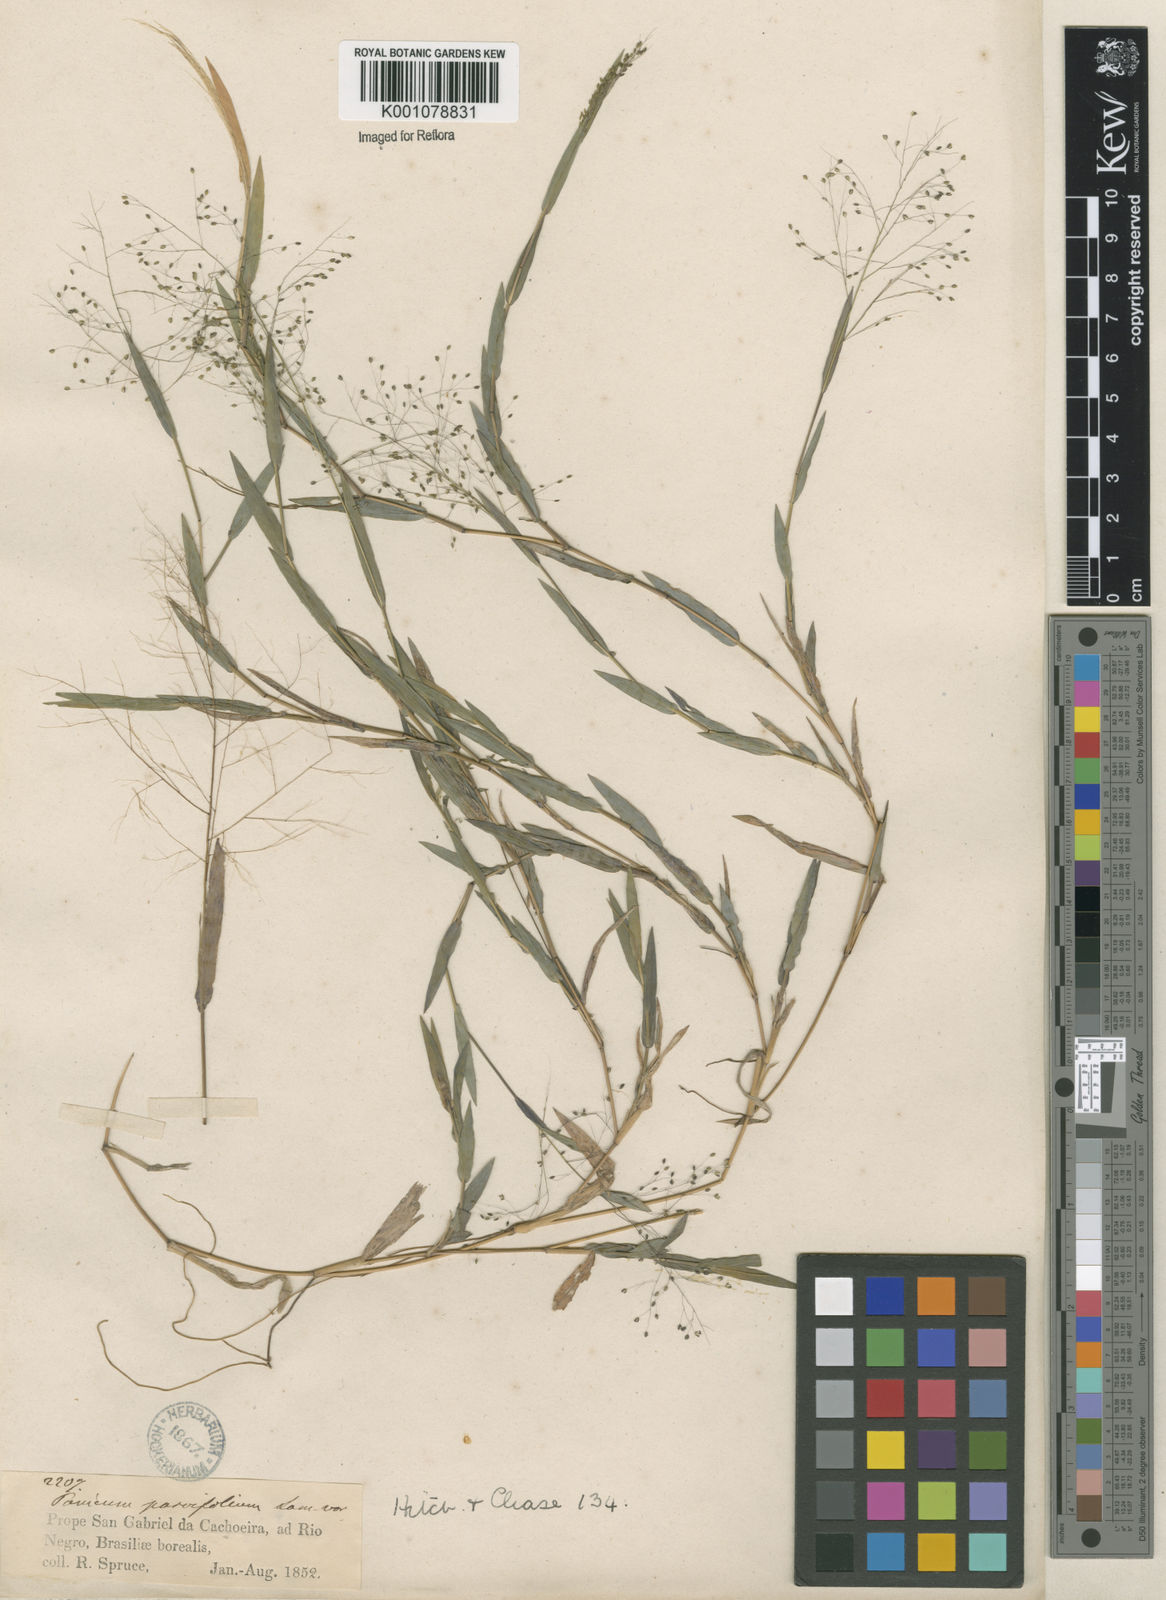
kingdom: Plantae
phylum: Tracheophyta
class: Liliopsida
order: Poales
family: Poaceae
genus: Trichanthecium
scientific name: Trichanthecium schwackeanum
